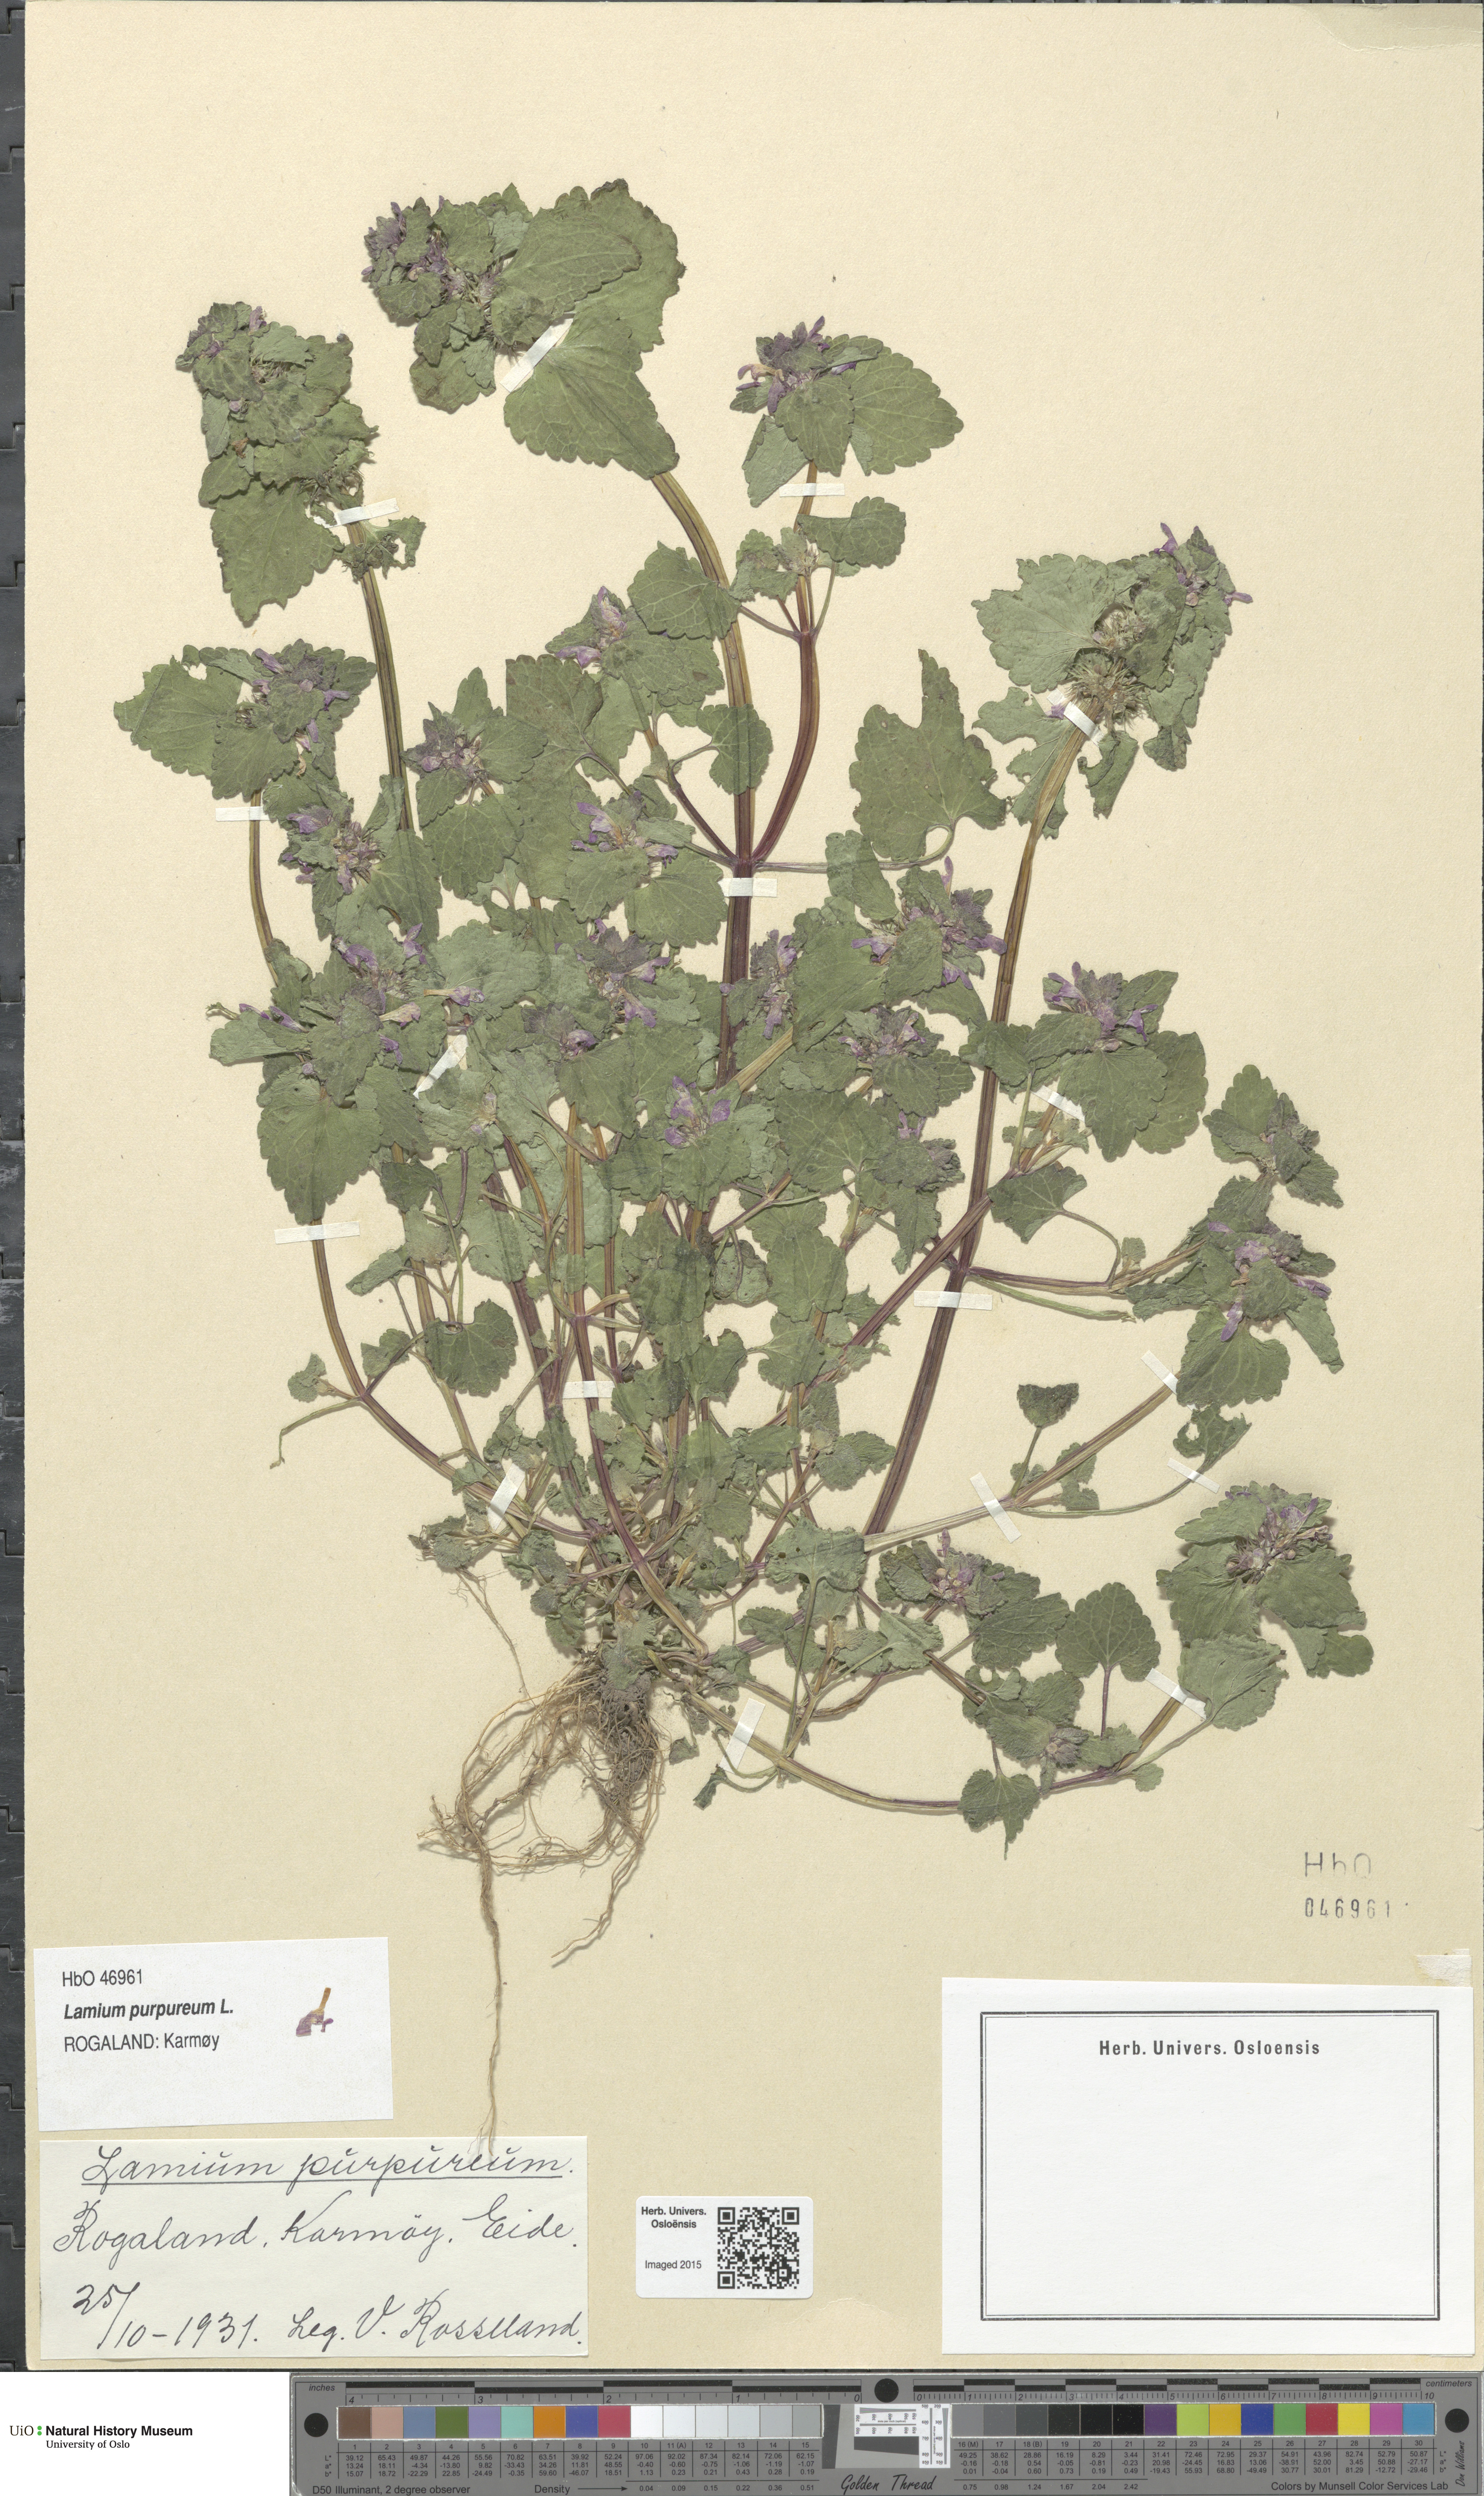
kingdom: Plantae
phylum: Tracheophyta
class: Magnoliopsida
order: Lamiales
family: Lamiaceae
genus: Lamium
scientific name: Lamium purpureum
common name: Red dead-nettle
